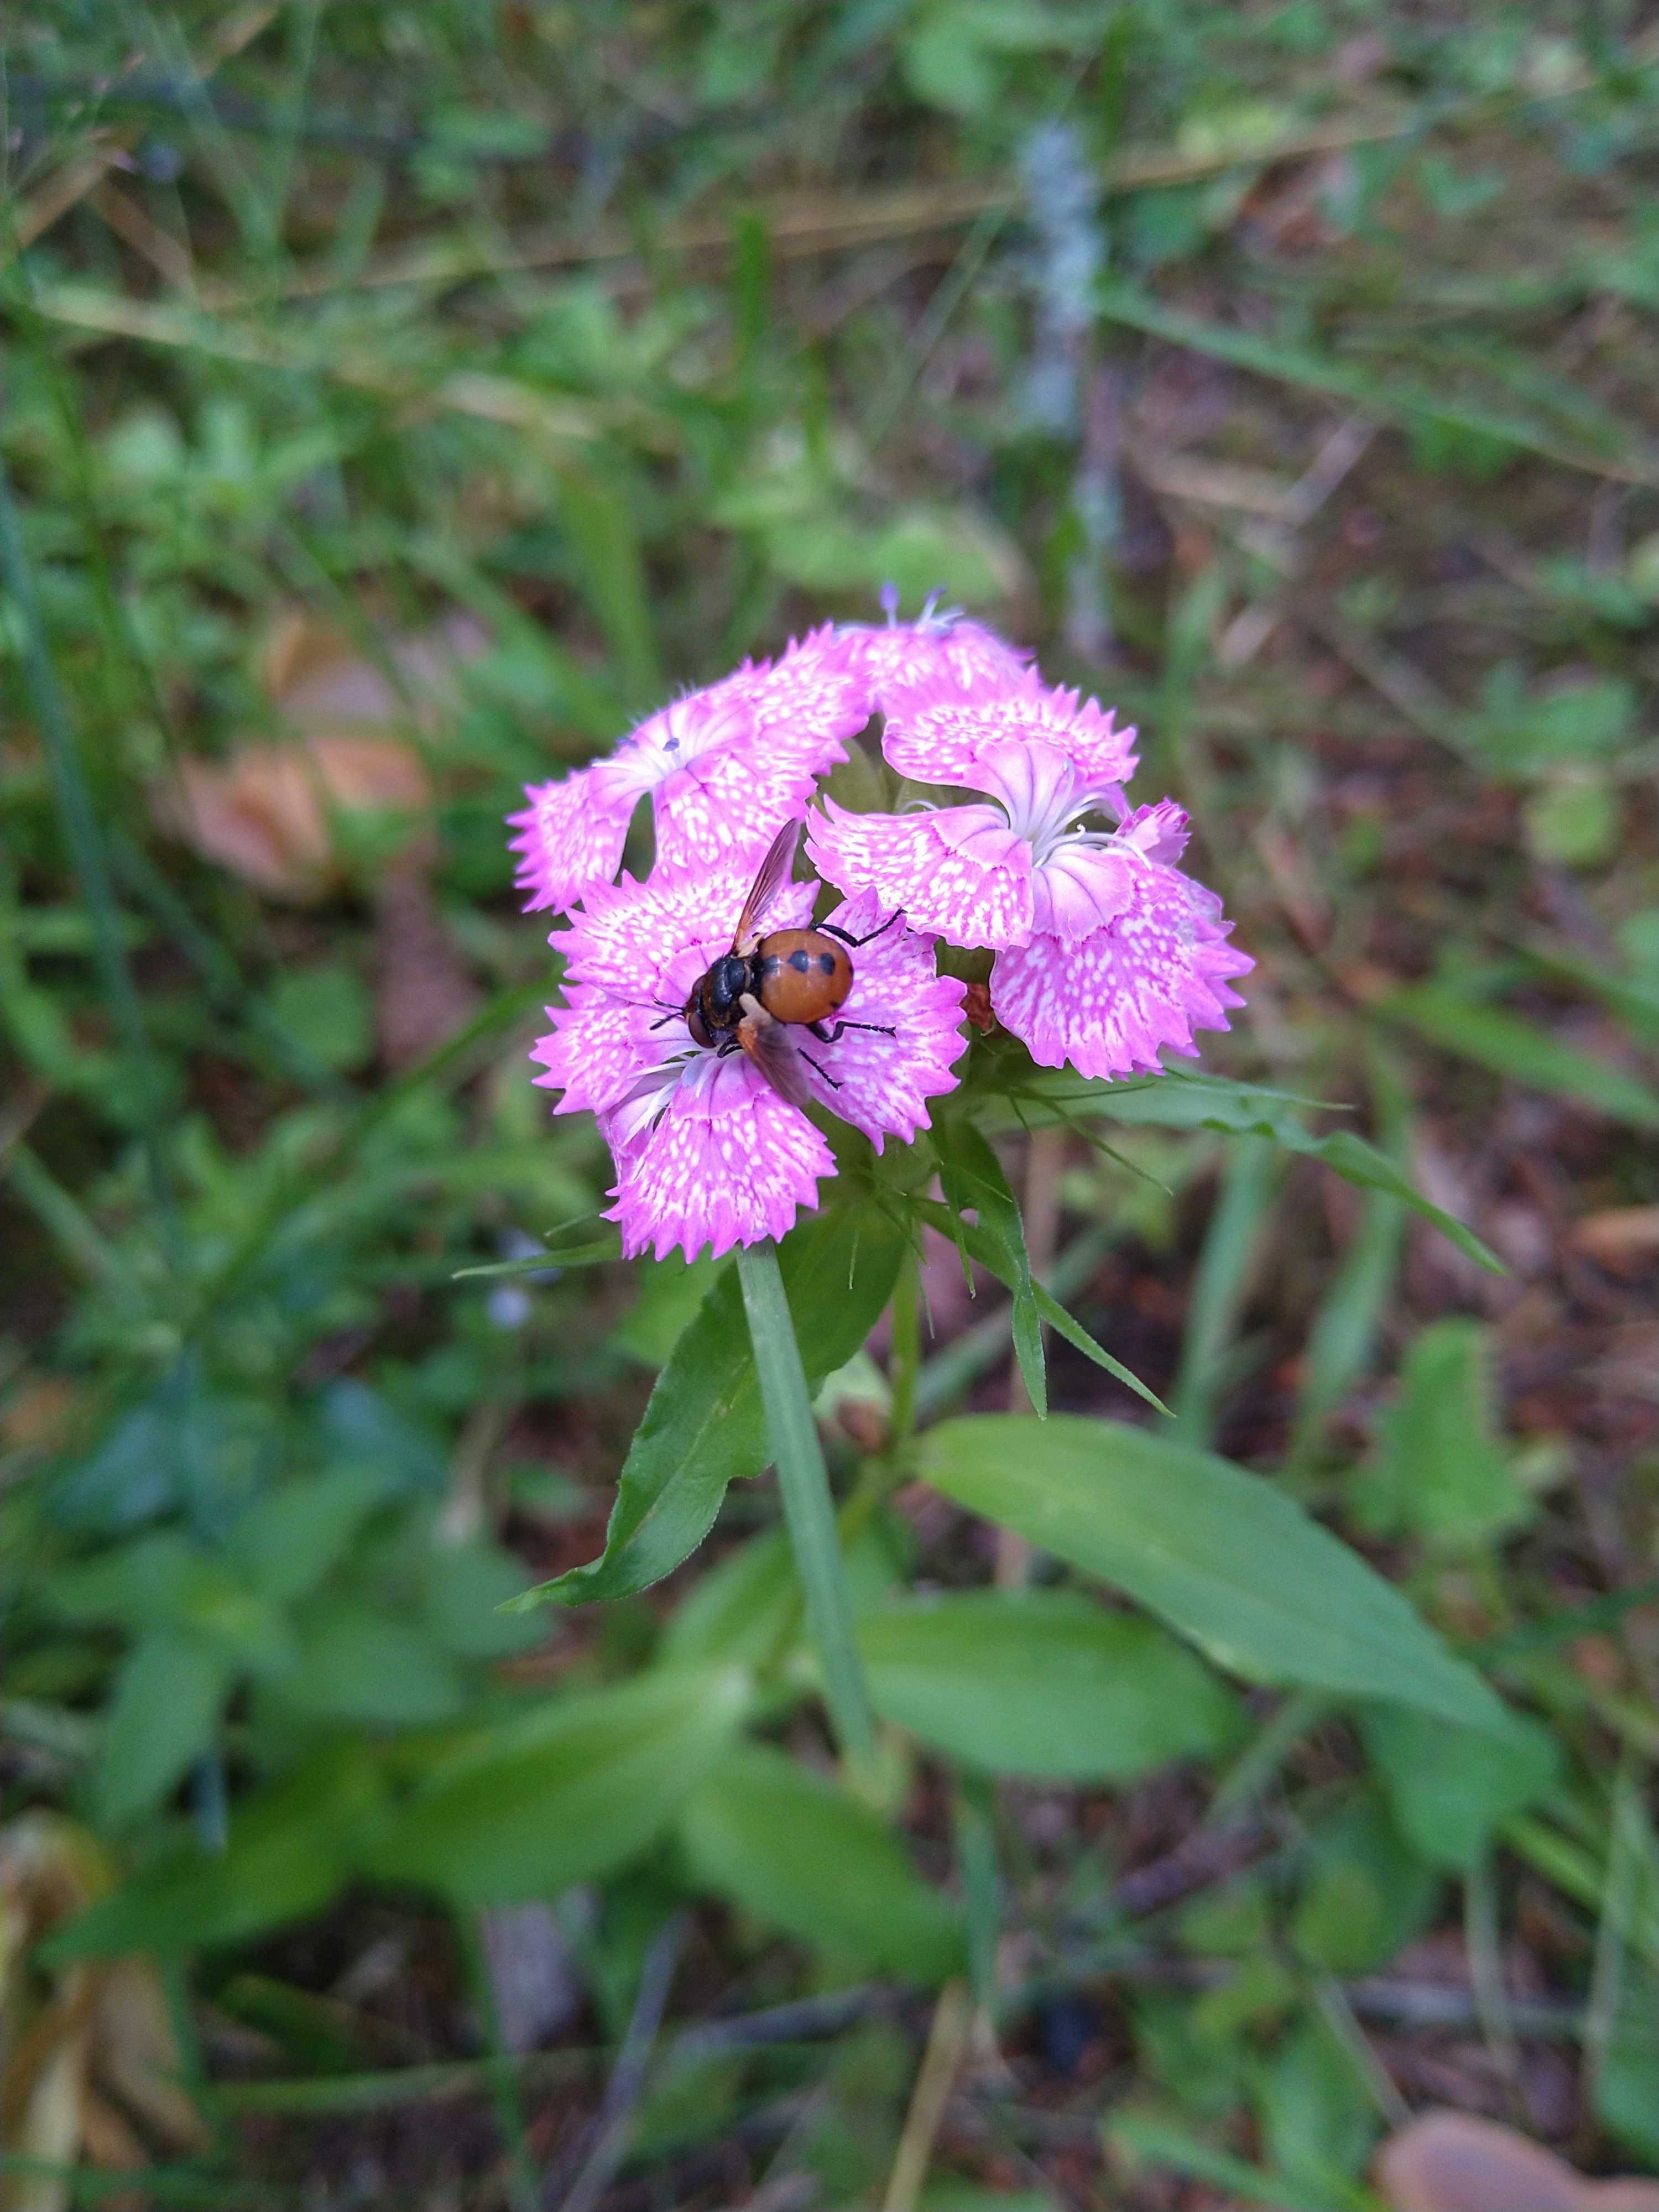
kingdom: Animalia
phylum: Arthropoda
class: Insecta
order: Diptera
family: Tachinidae
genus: Gymnosoma
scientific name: Gymnosoma nudifrons
